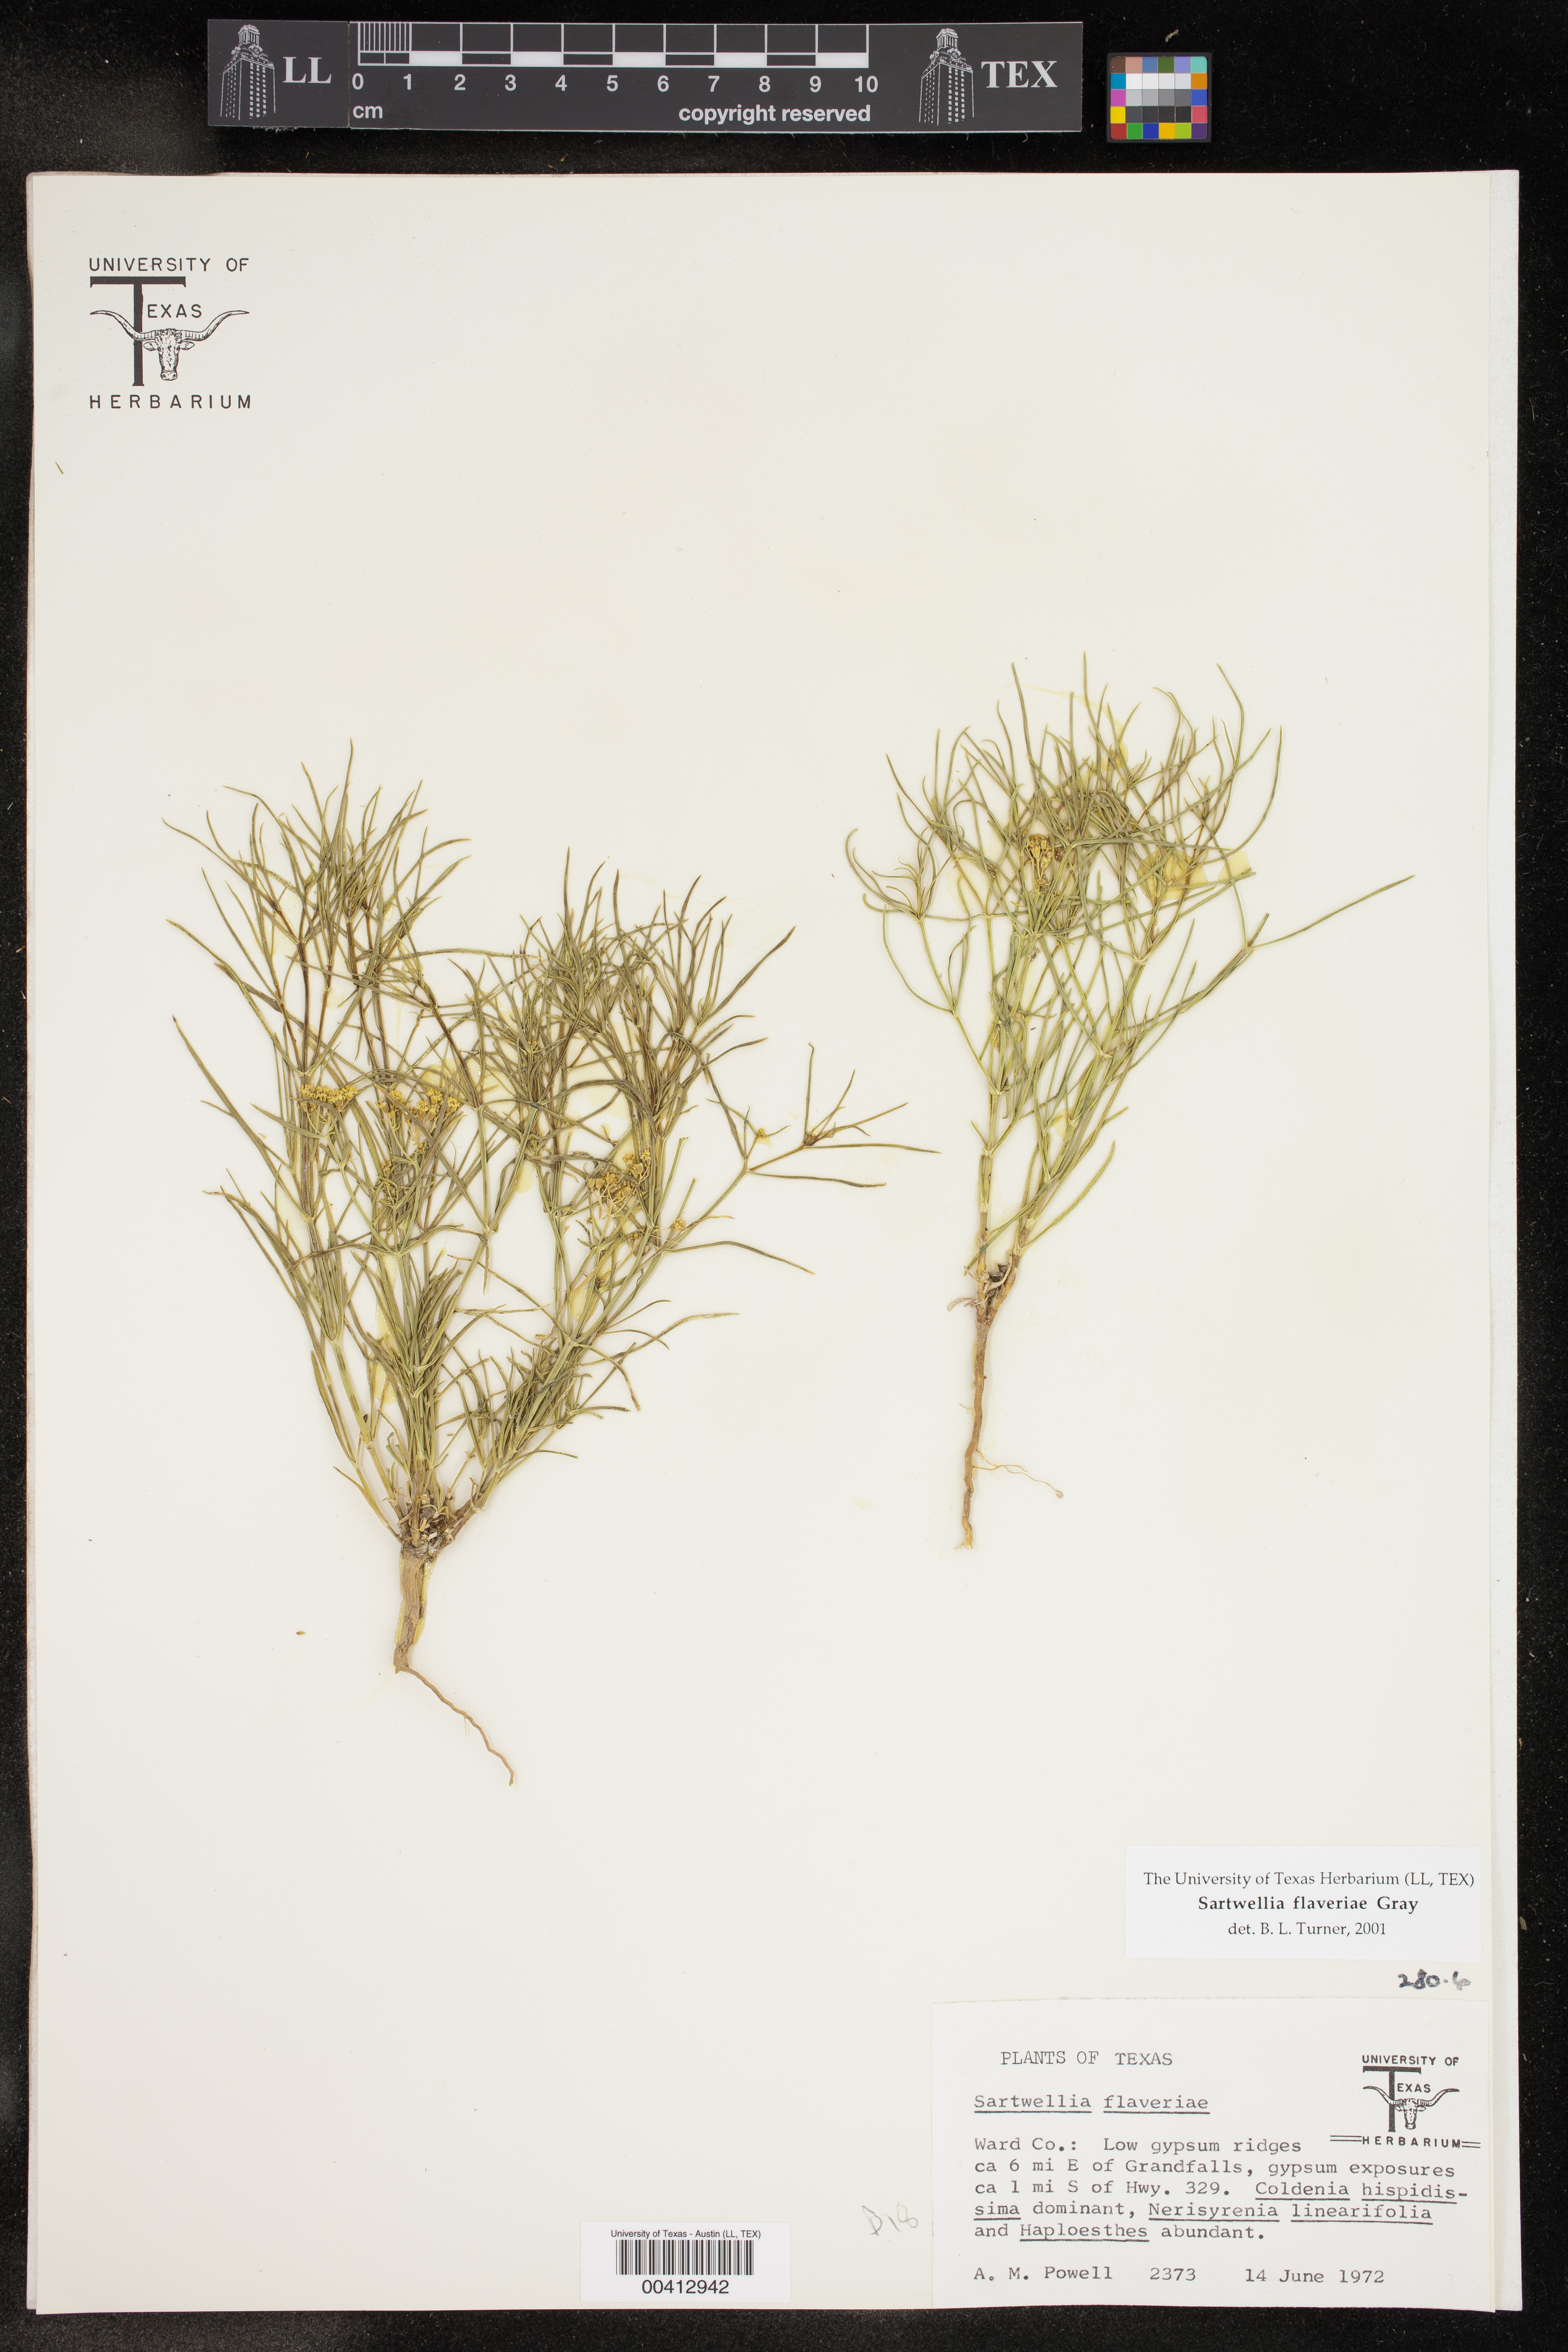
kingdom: Plantae
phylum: Tracheophyta
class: Magnoliopsida
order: Asterales
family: Asteraceae
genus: Sartwellia
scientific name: Sartwellia flaveriae
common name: Sartwellia
